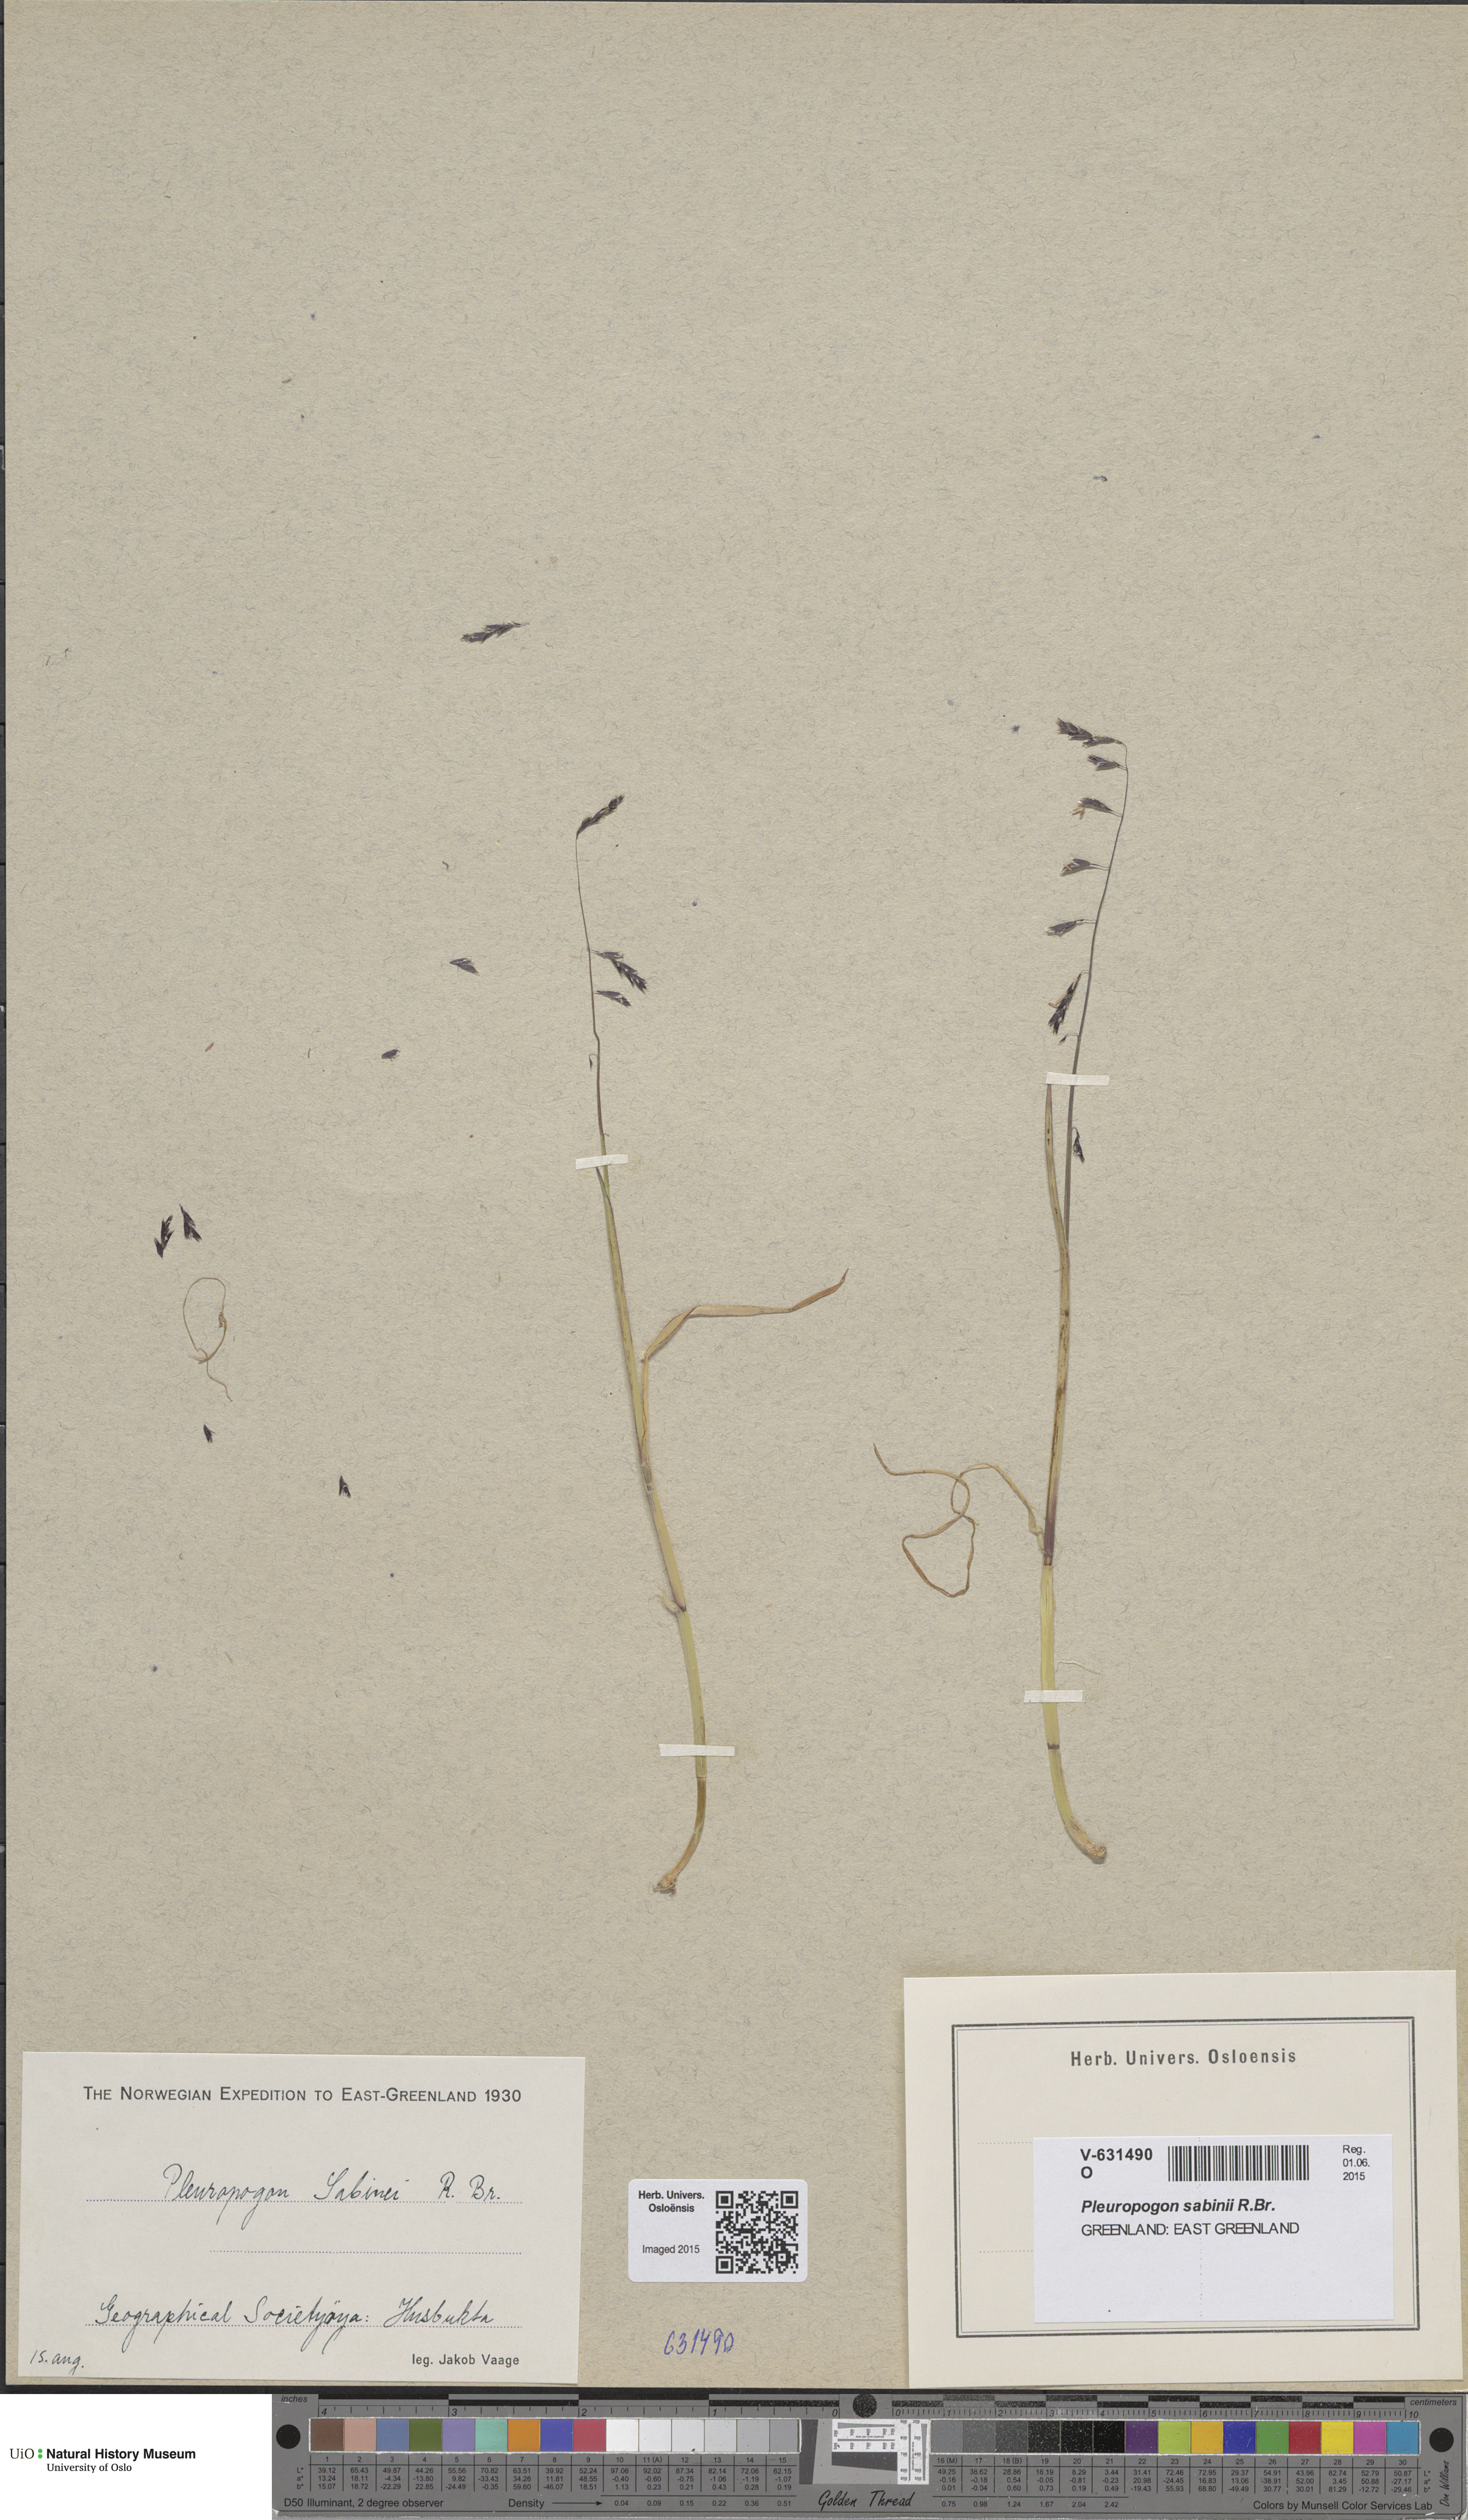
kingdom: Plantae
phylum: Tracheophyta
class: Liliopsida
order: Poales
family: Poaceae
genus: Pleuropogon
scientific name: Pleuropogon sabinei
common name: Sabine's false semaphoregrass
